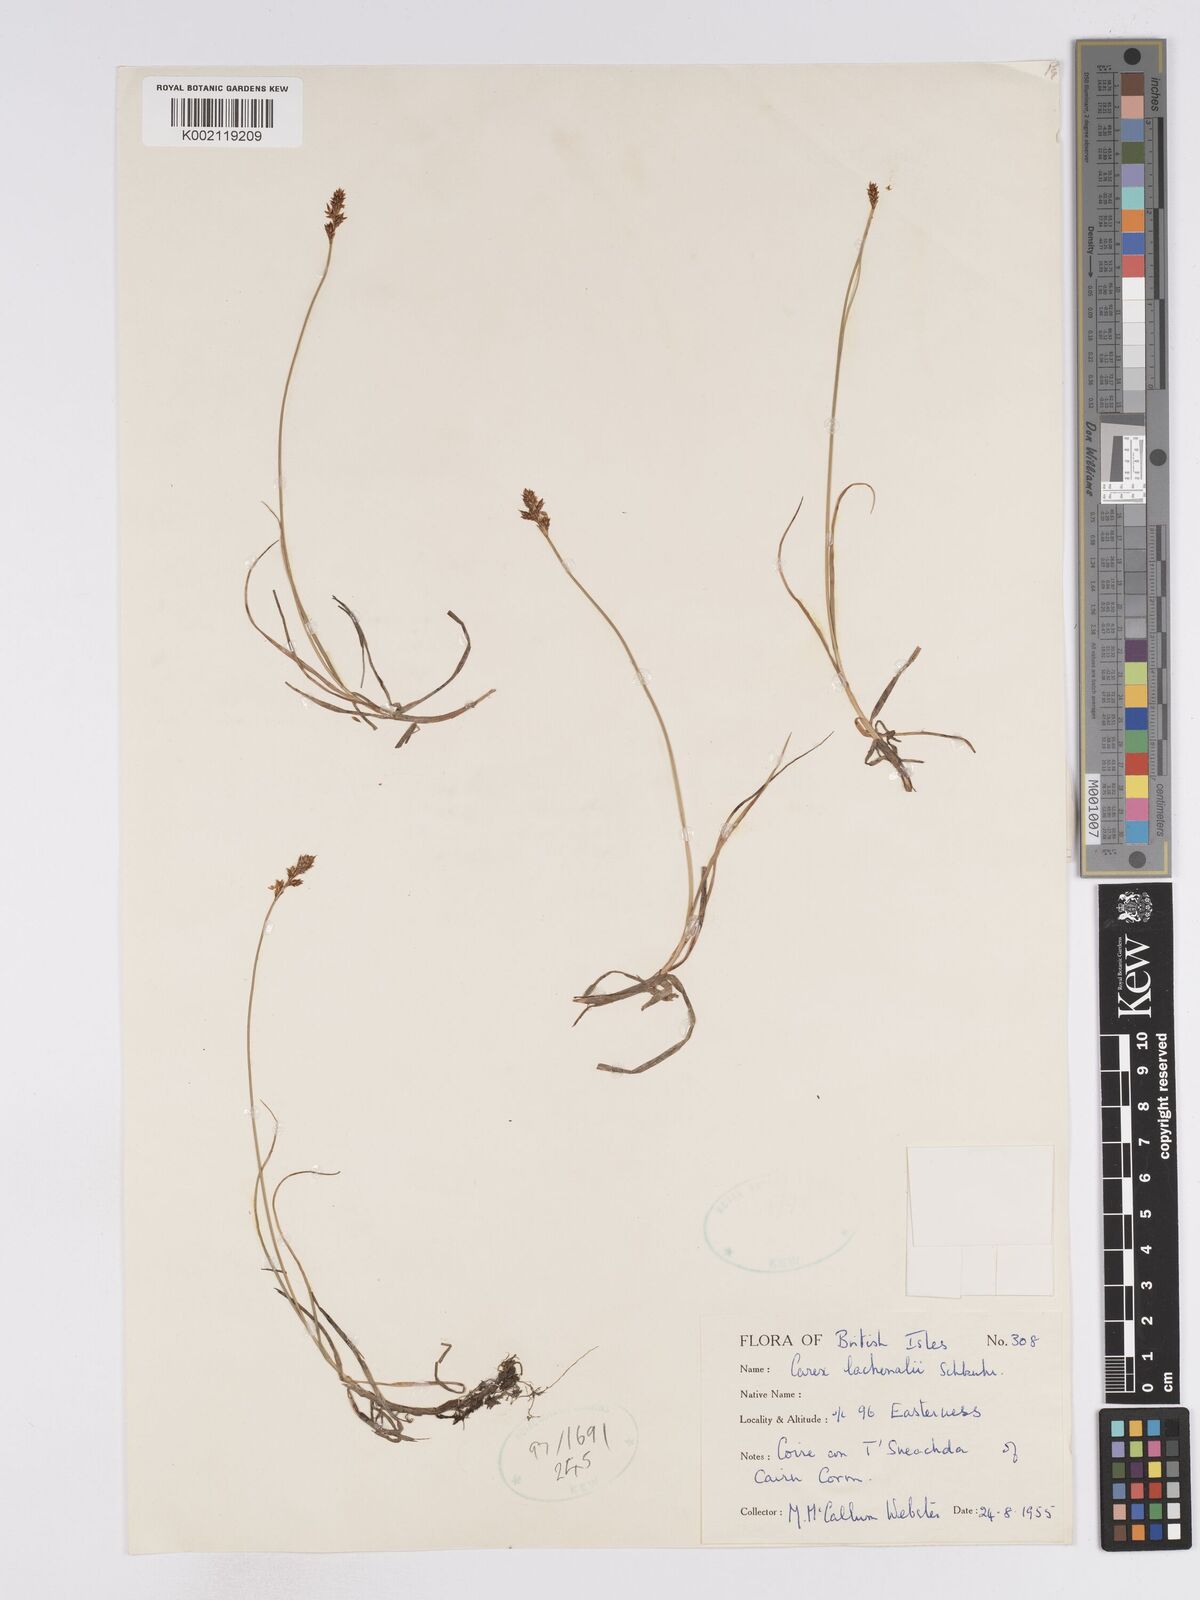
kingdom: Plantae
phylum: Tracheophyta
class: Liliopsida
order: Poales
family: Cyperaceae
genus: Carex
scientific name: Carex lachenalii
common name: Hare's-foot sedge
